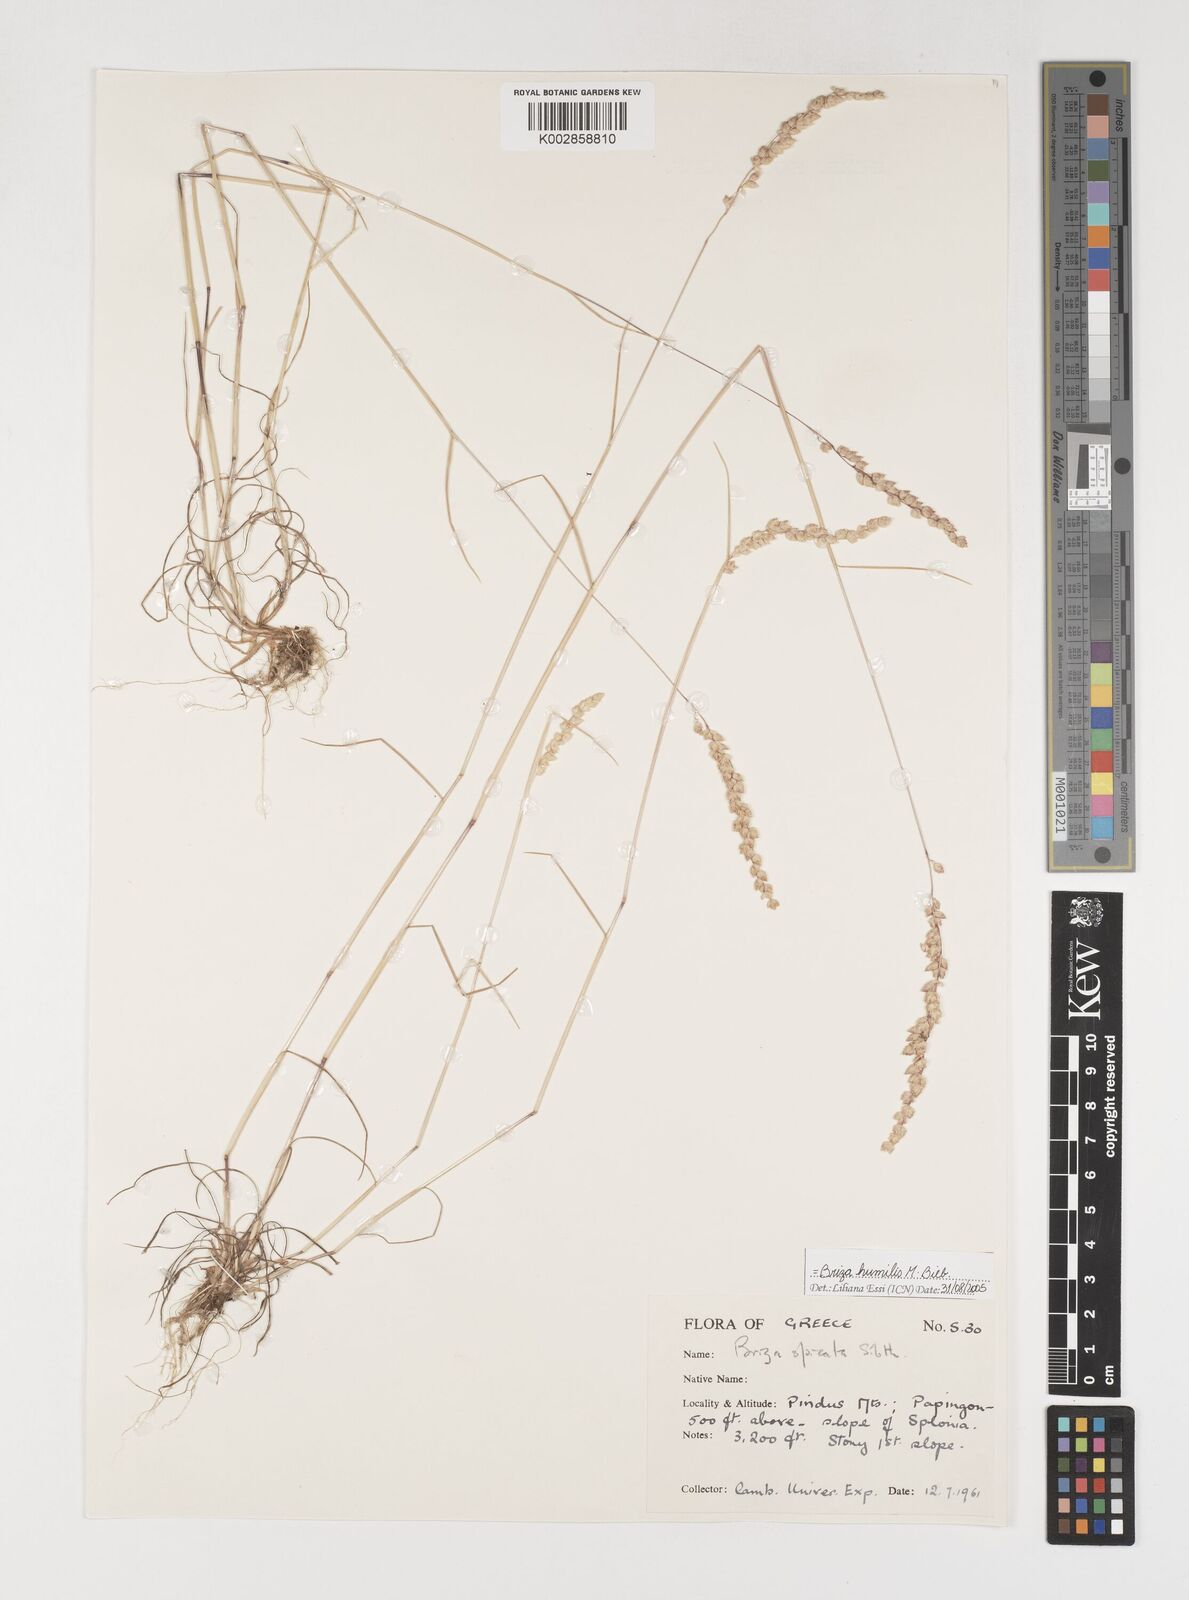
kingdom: Plantae
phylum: Tracheophyta
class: Liliopsida
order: Poales
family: Poaceae
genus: Briza
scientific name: Briza humilis
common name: Spiked quaking grass
